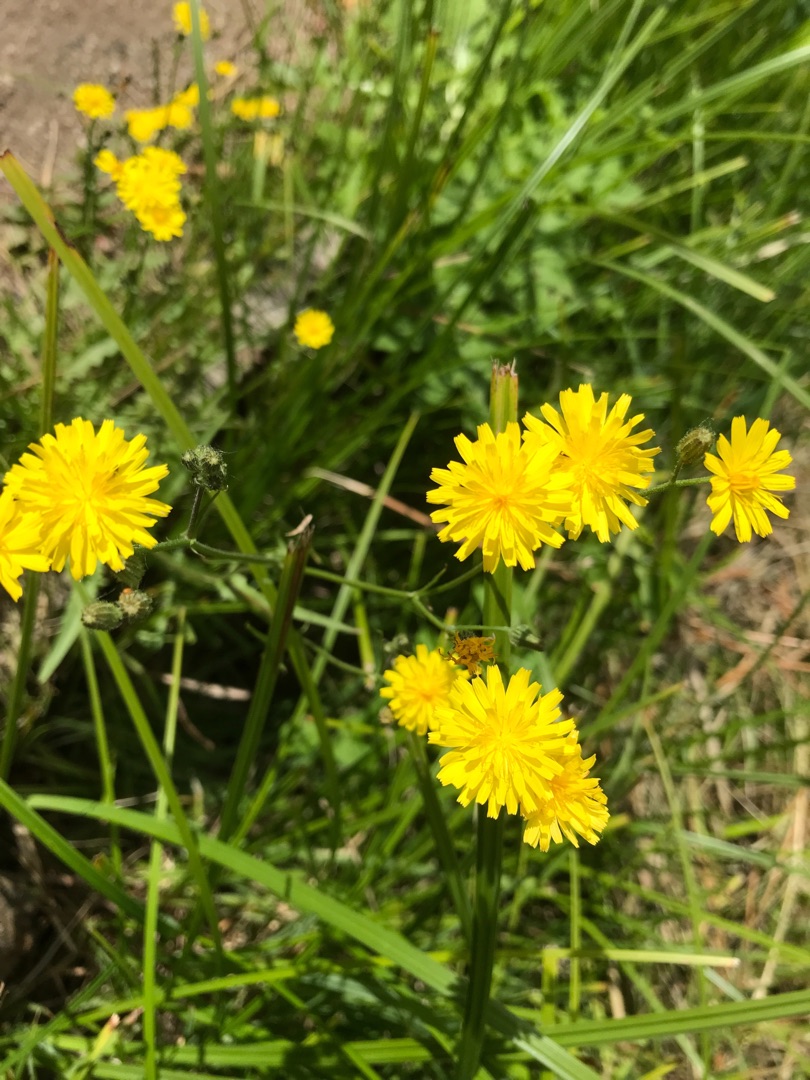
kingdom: Plantae
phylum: Tracheophyta
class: Magnoliopsida
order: Asterales
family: Asteraceae
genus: Crepis
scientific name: Crepis capillaris
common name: Grøn høgeskæg
